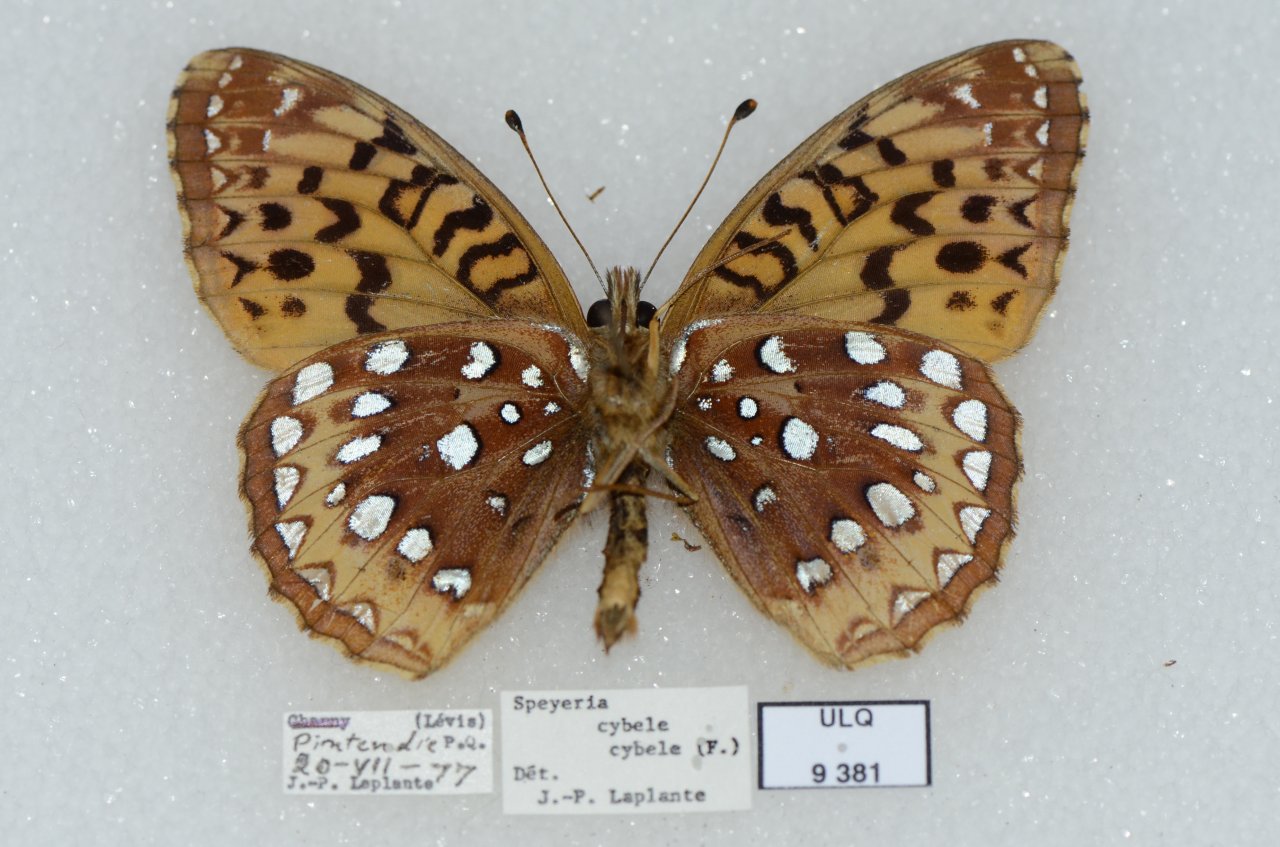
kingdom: Animalia
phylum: Arthropoda
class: Insecta
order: Lepidoptera
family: Nymphalidae
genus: Speyeria
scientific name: Speyeria cybele
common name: Great Spangled Fritillary
